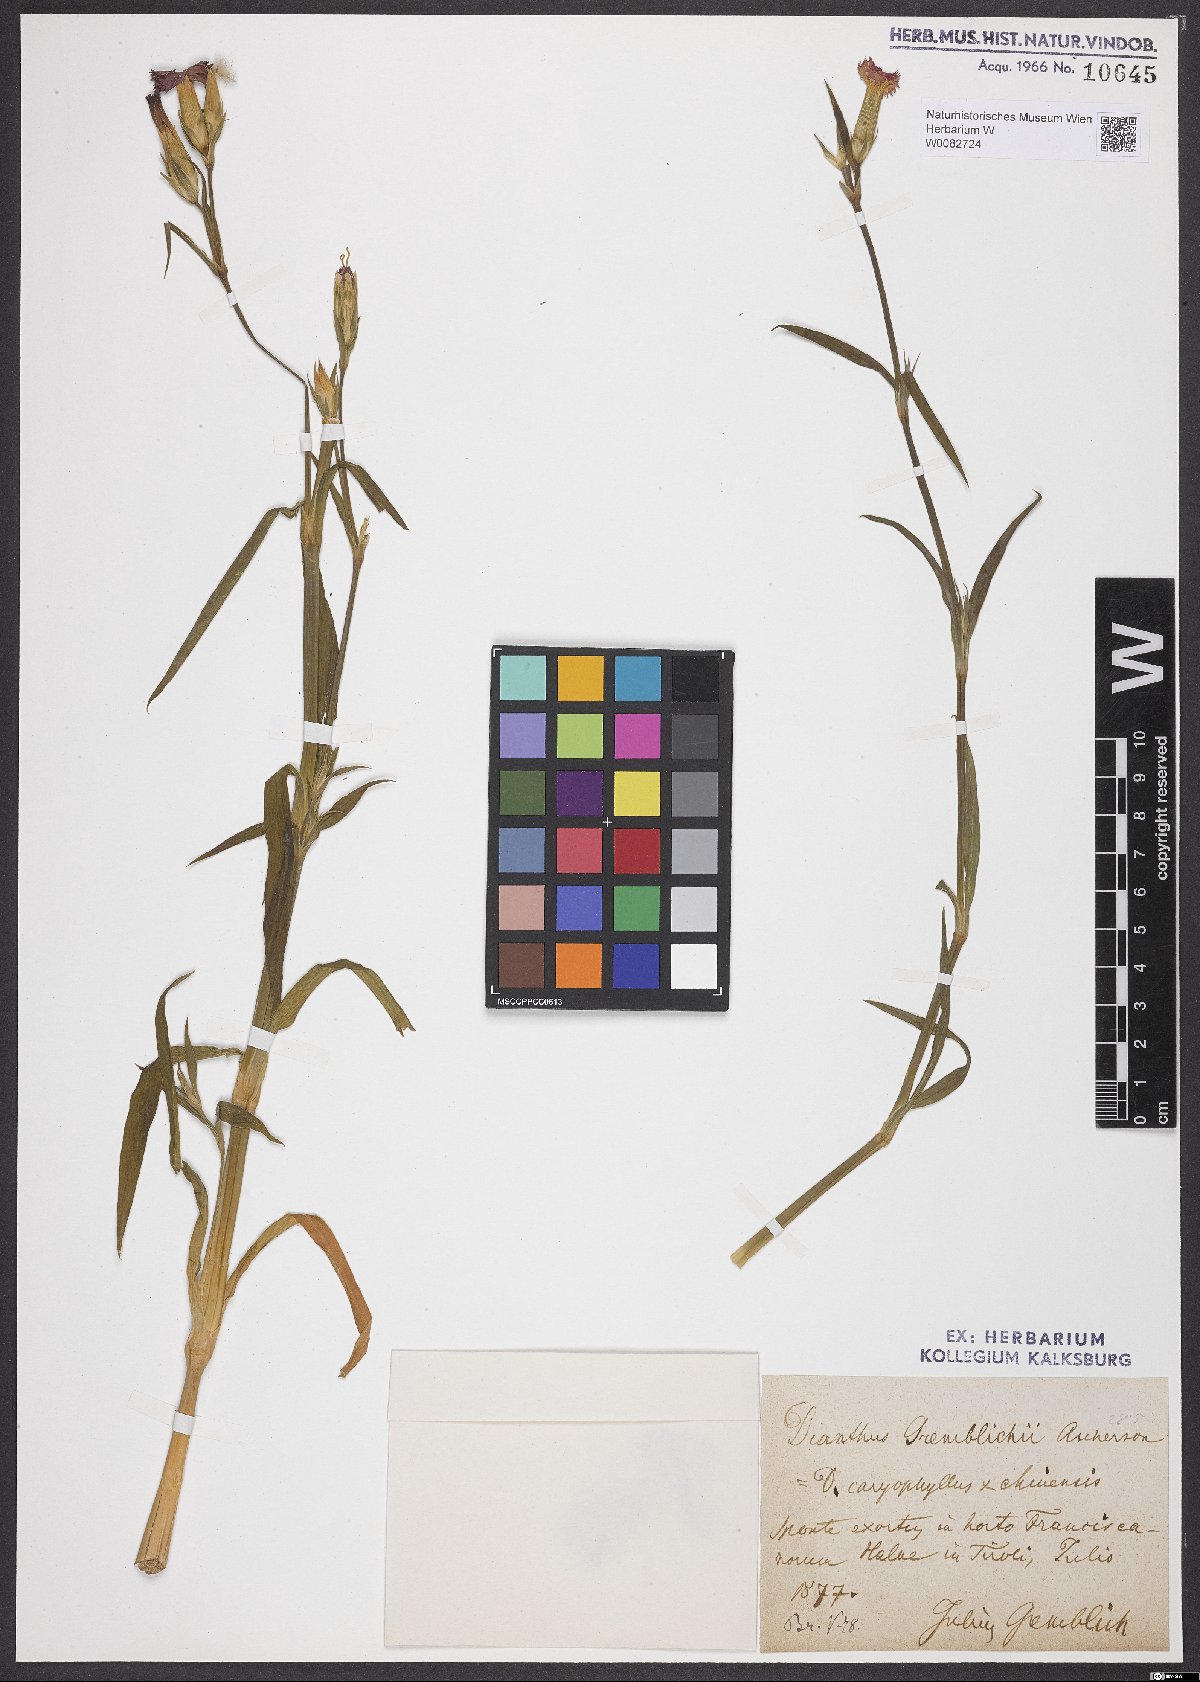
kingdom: Plantae
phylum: Tracheophyta
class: Magnoliopsida
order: Caryophyllales
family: Caryophyllaceae
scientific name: Caryophyllaceae
